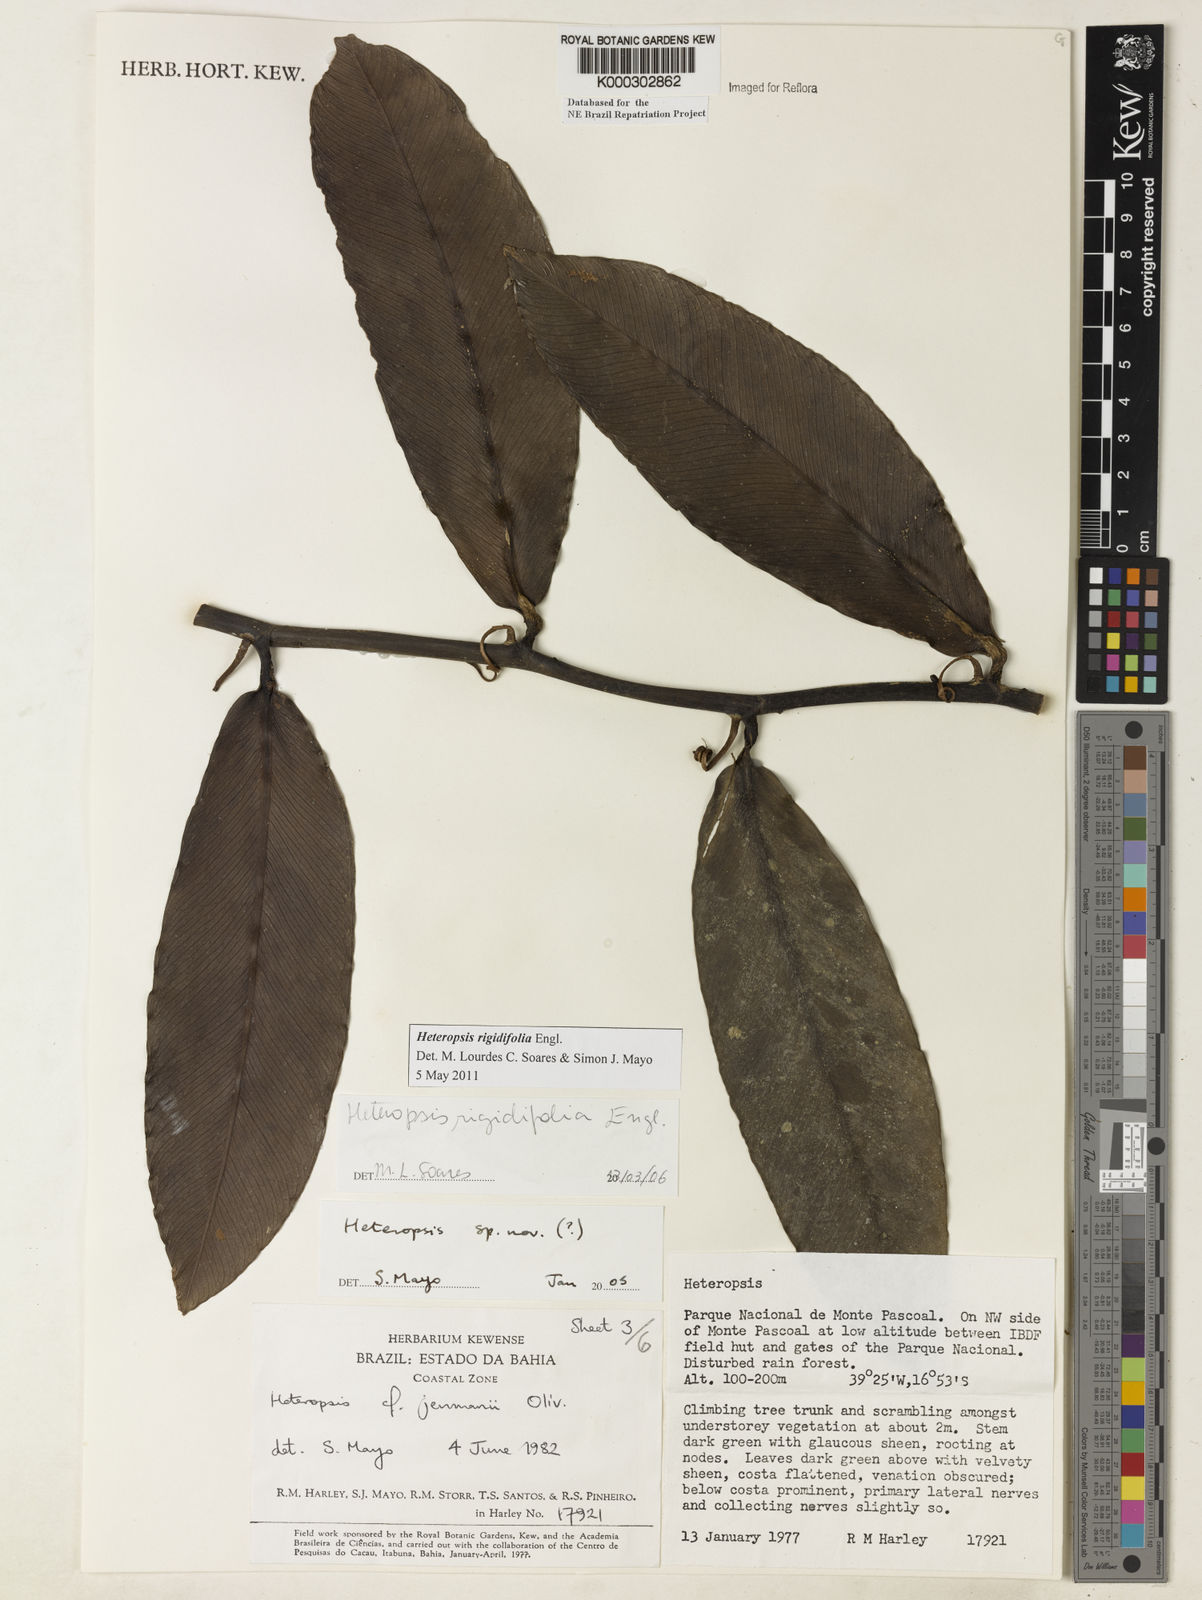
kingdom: Plantae
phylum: Tracheophyta
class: Liliopsida
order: Alismatales
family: Araceae
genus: Heteropsis
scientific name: Heteropsis
